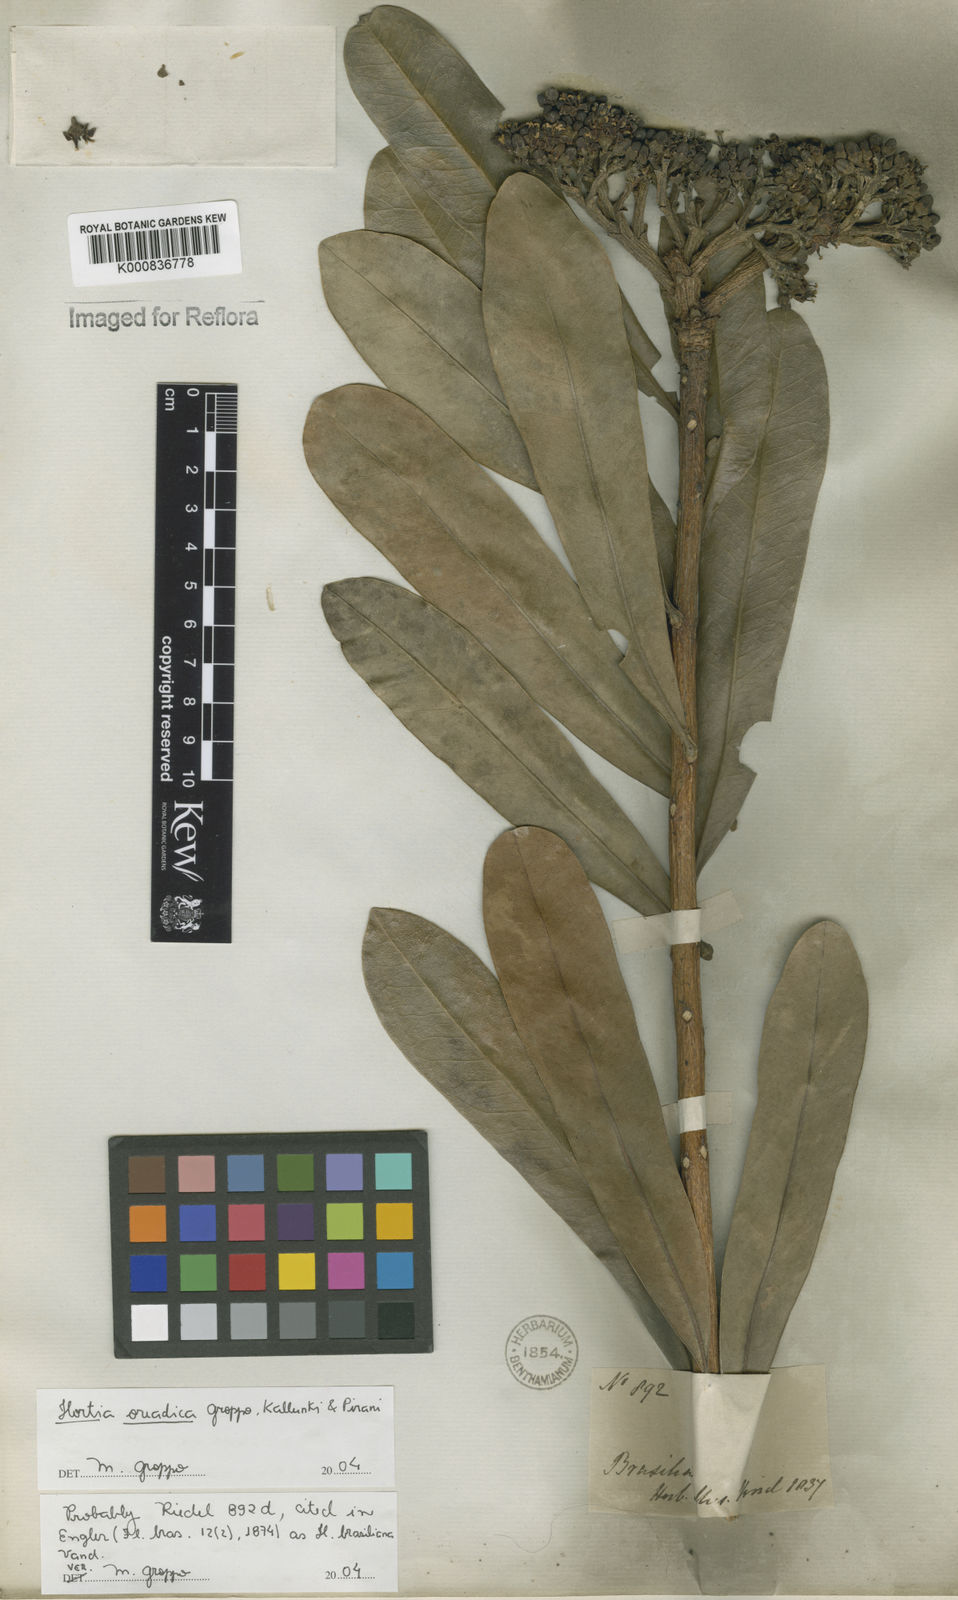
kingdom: Plantae
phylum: Tracheophyta
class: Magnoliopsida
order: Sapindales
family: Rutaceae
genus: Hortia
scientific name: Hortia brasiliana
